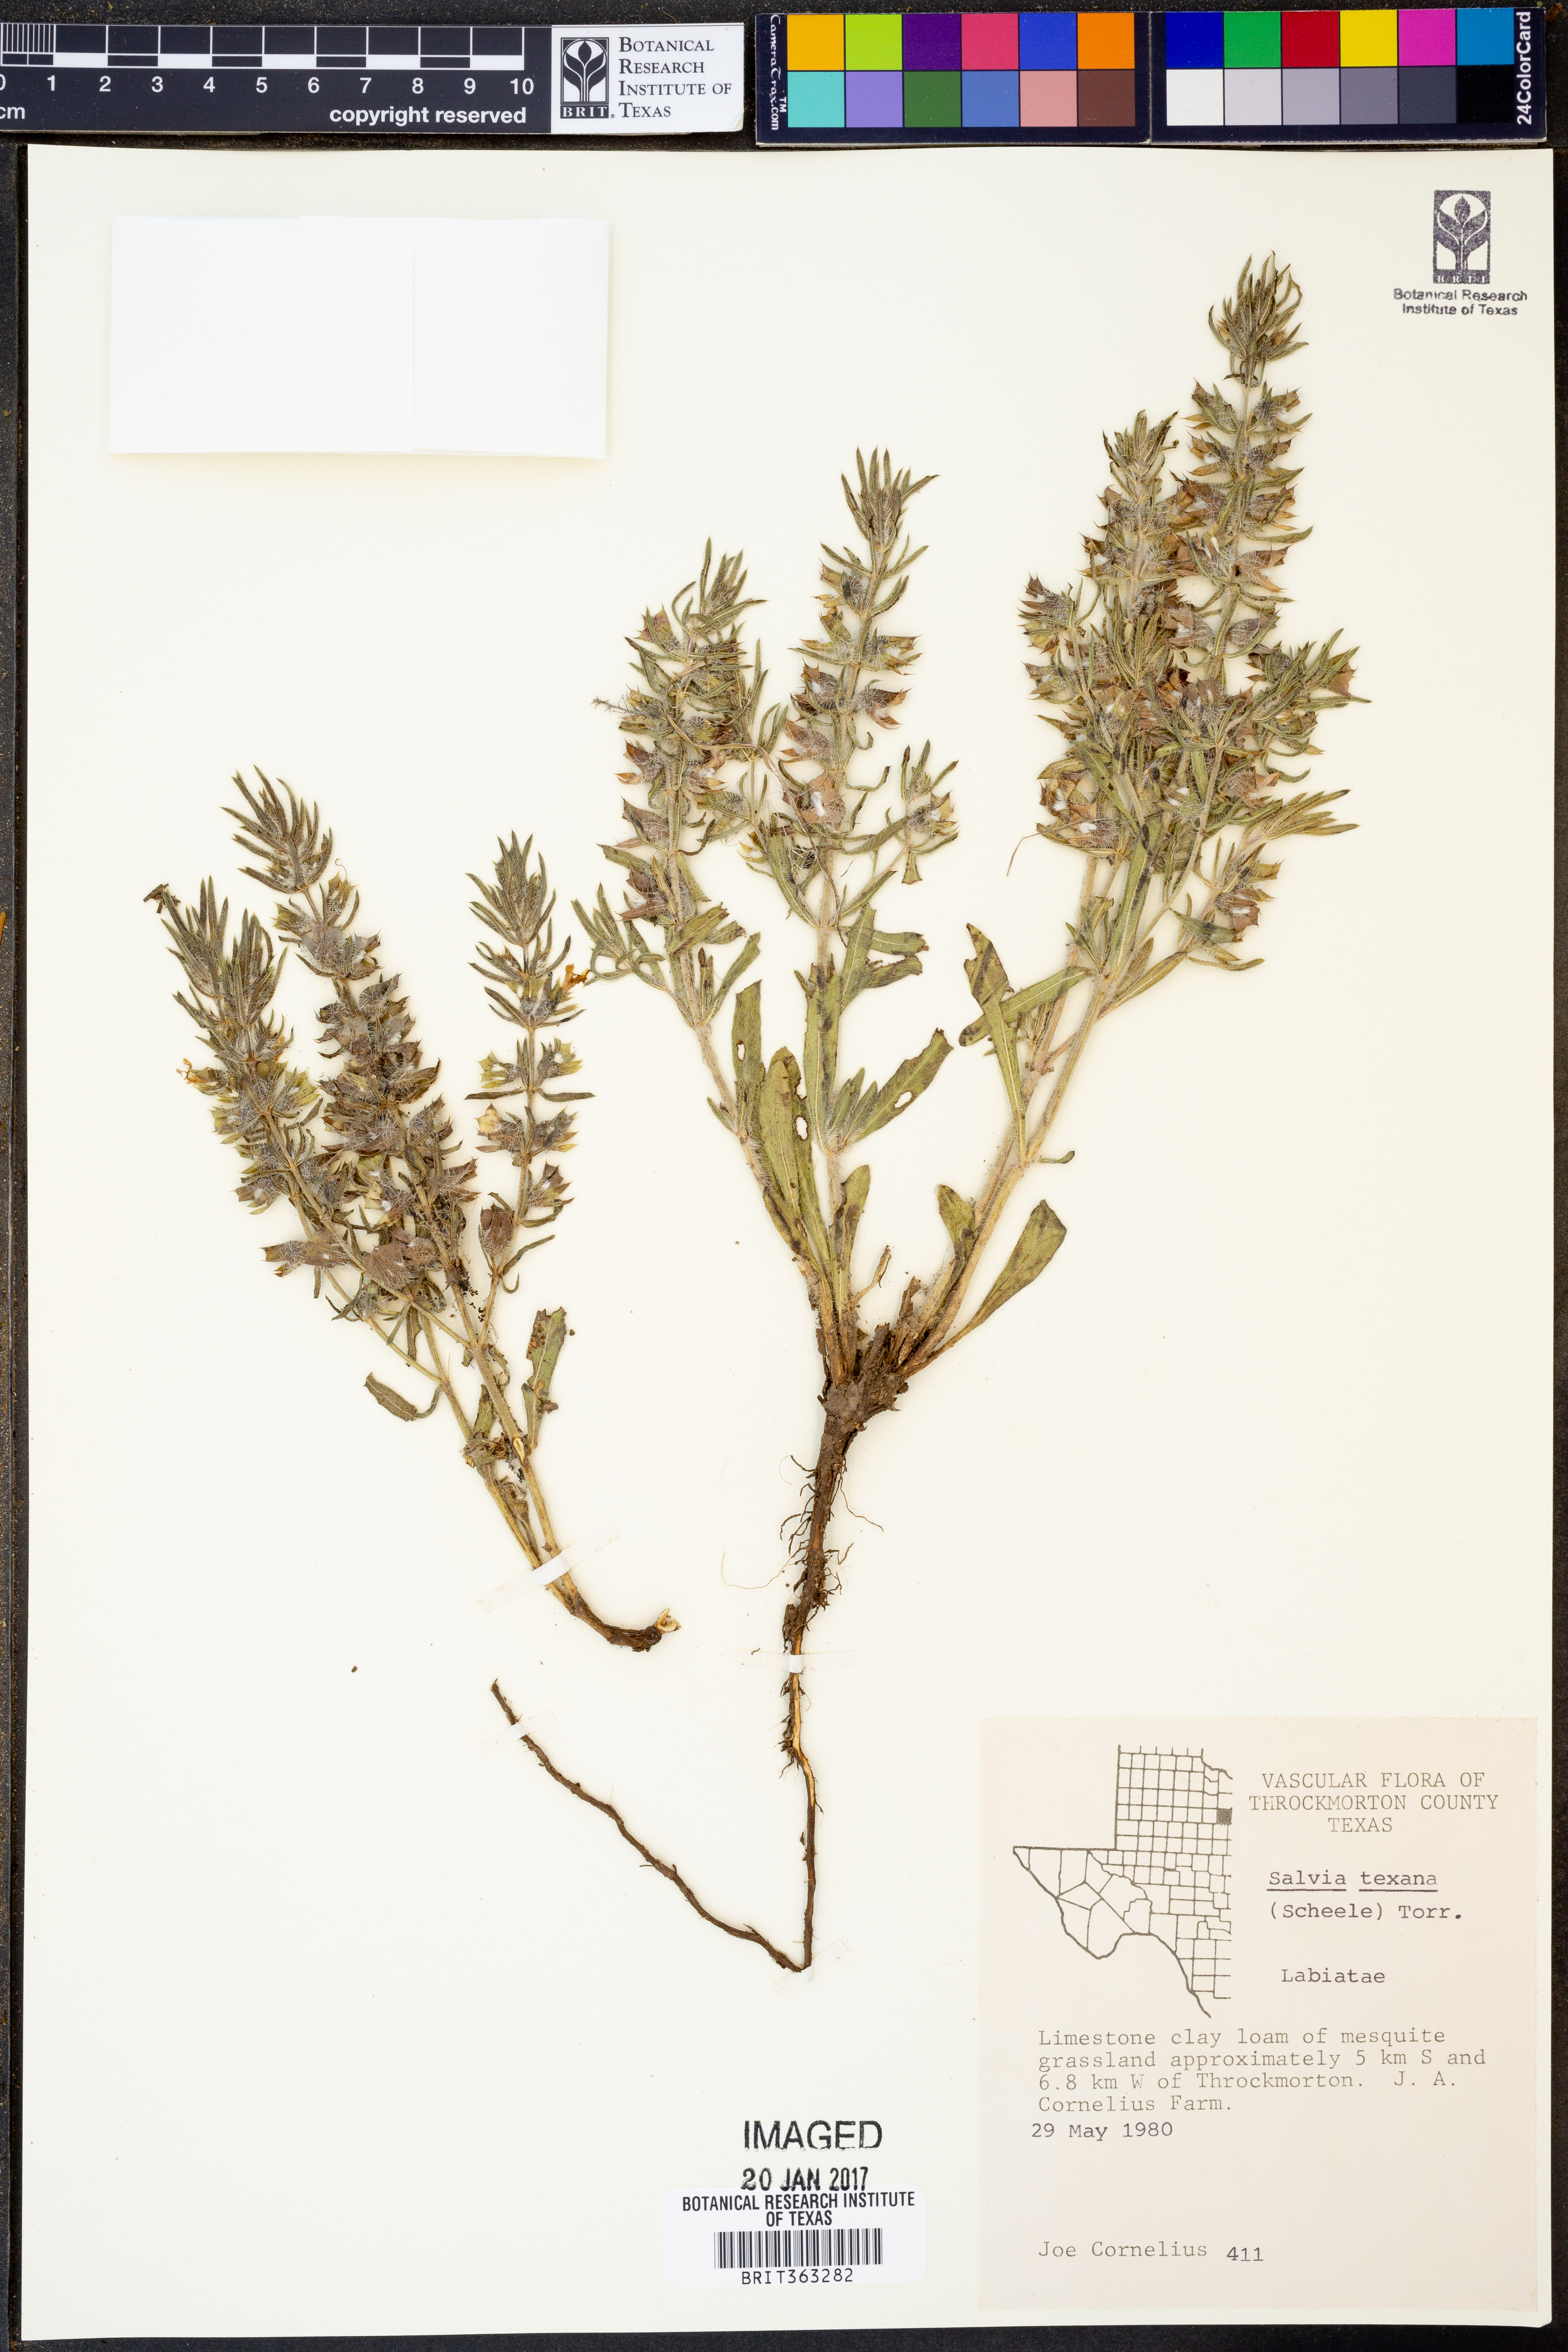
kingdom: Plantae
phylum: Tracheophyta
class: Magnoliopsida
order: Lamiales
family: Lamiaceae
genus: Salvia
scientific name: Salvia texana
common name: Texas sage
